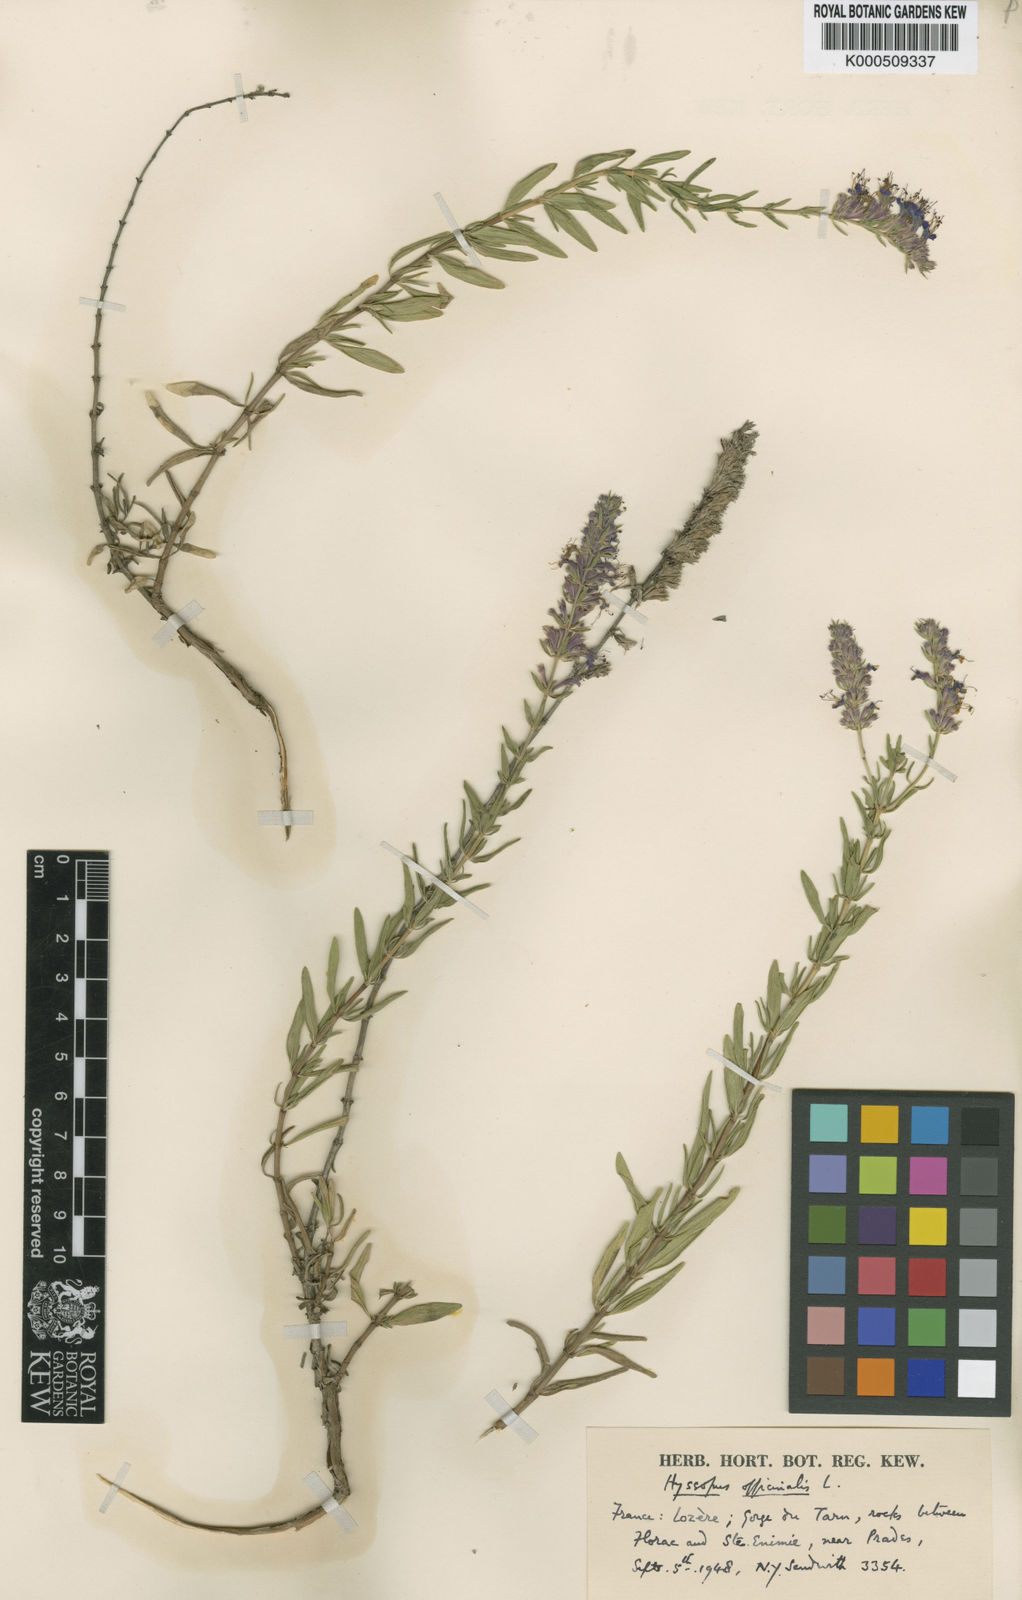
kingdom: Plantae
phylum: Tracheophyta
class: Magnoliopsida
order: Lamiales
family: Lamiaceae
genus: Hyssopus
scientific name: Hyssopus officinalis
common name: Hyssop
